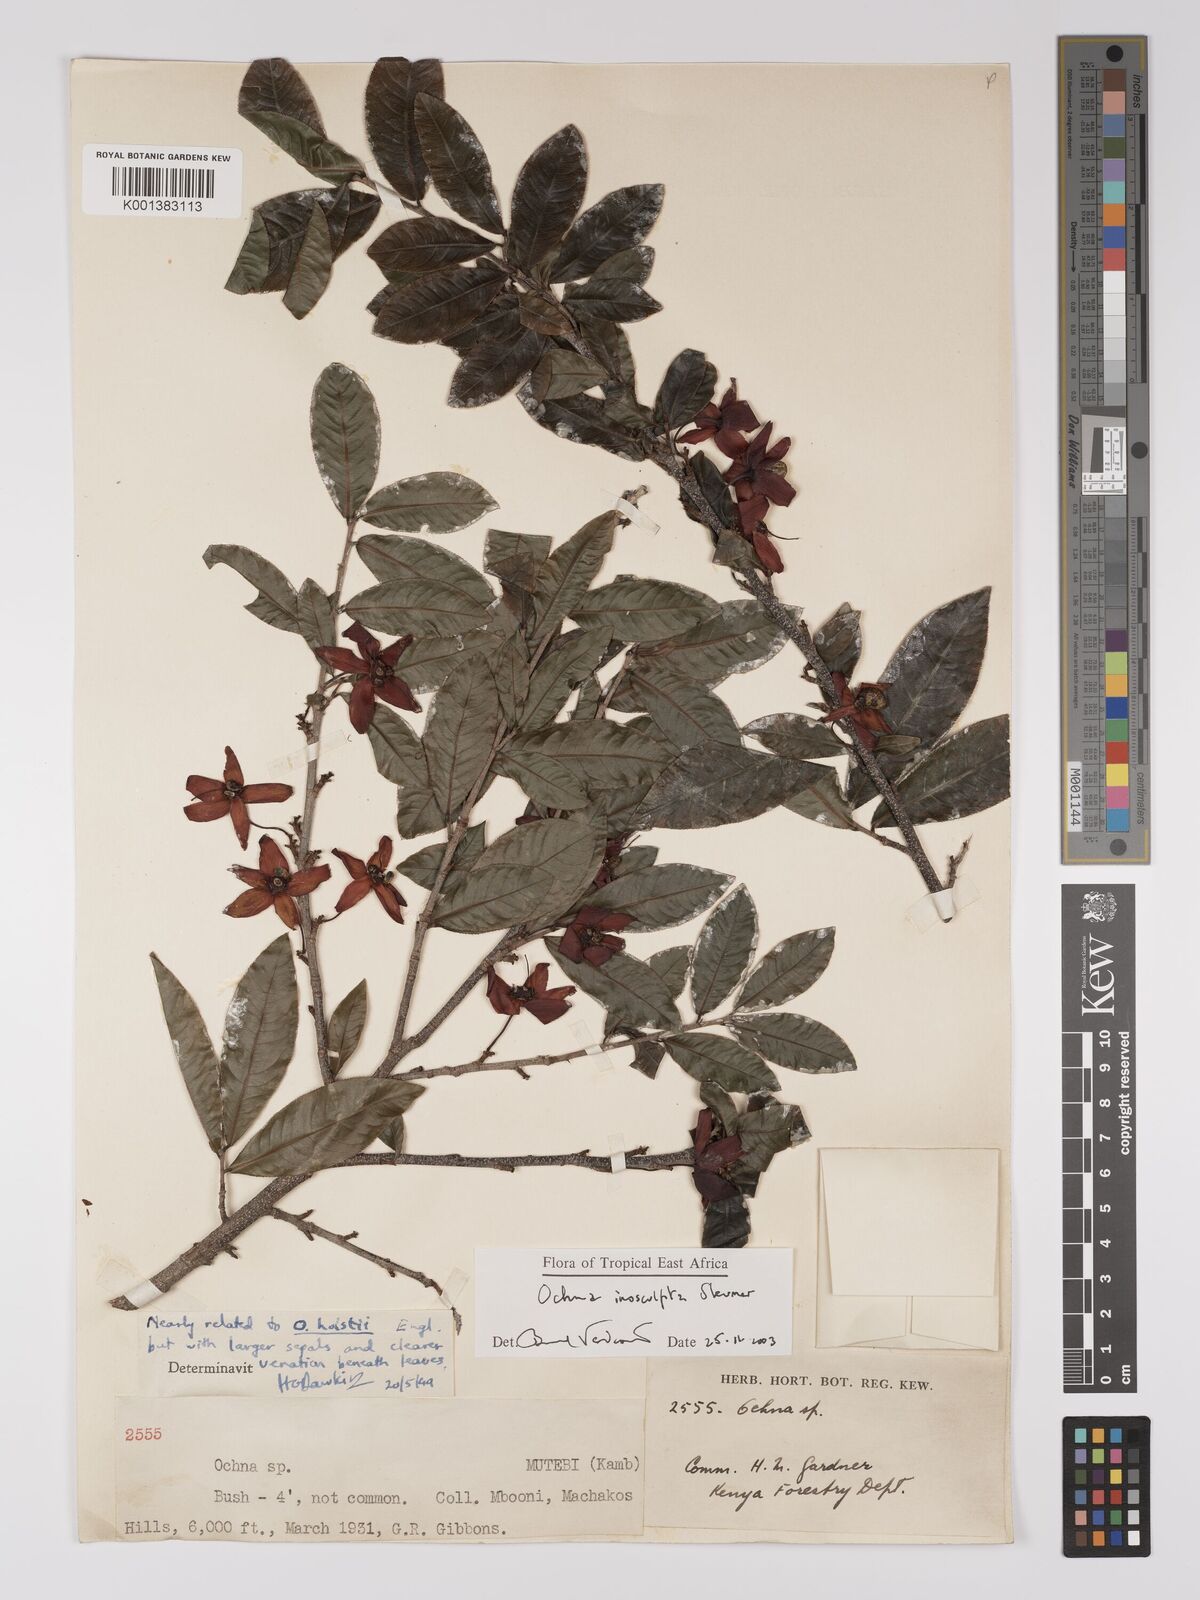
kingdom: Plantae
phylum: Tracheophyta
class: Magnoliopsida
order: Malpighiales
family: Ochnaceae
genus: Ochna
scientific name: Ochna insculpta
